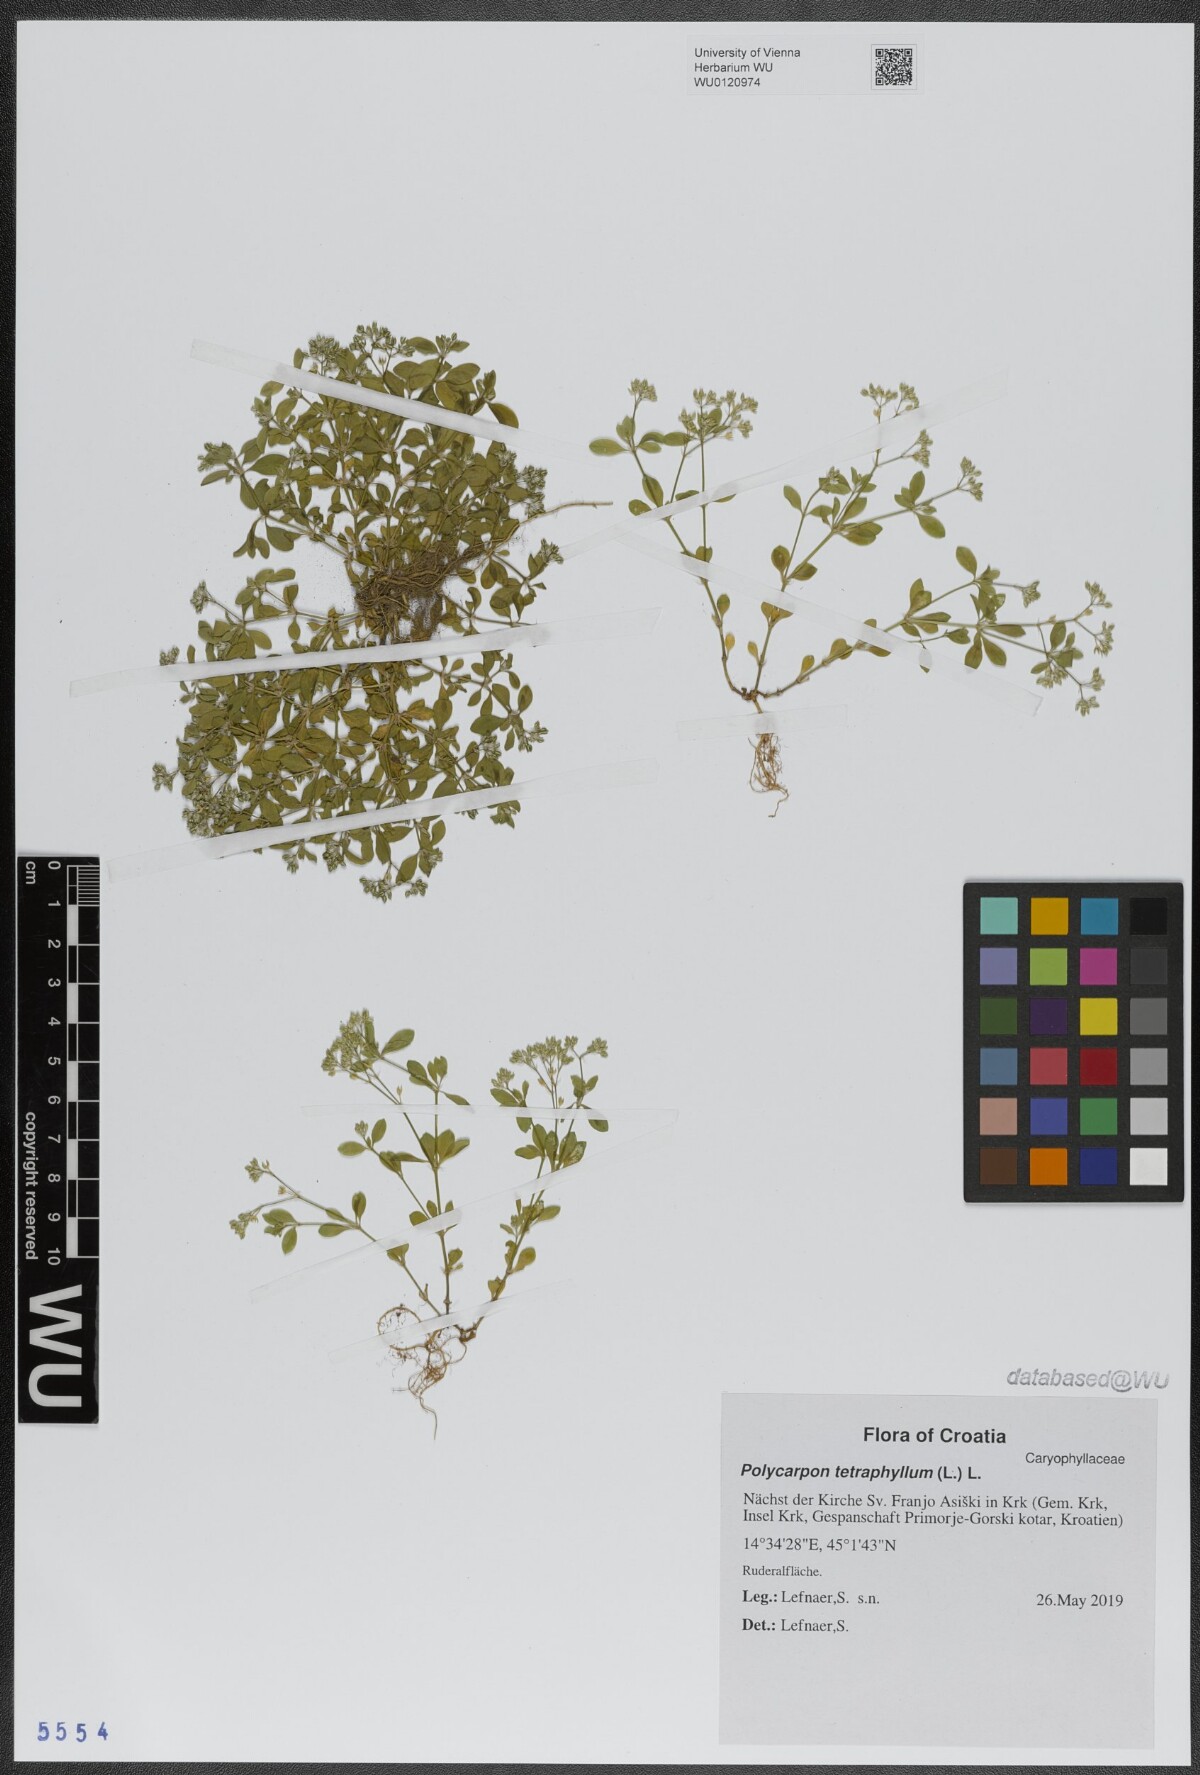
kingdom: Plantae
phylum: Tracheophyta
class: Magnoliopsida
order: Caryophyllales
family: Caryophyllaceae
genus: Polycarpon
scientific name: Polycarpon tetraphyllum
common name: Four-leaved all-seed
